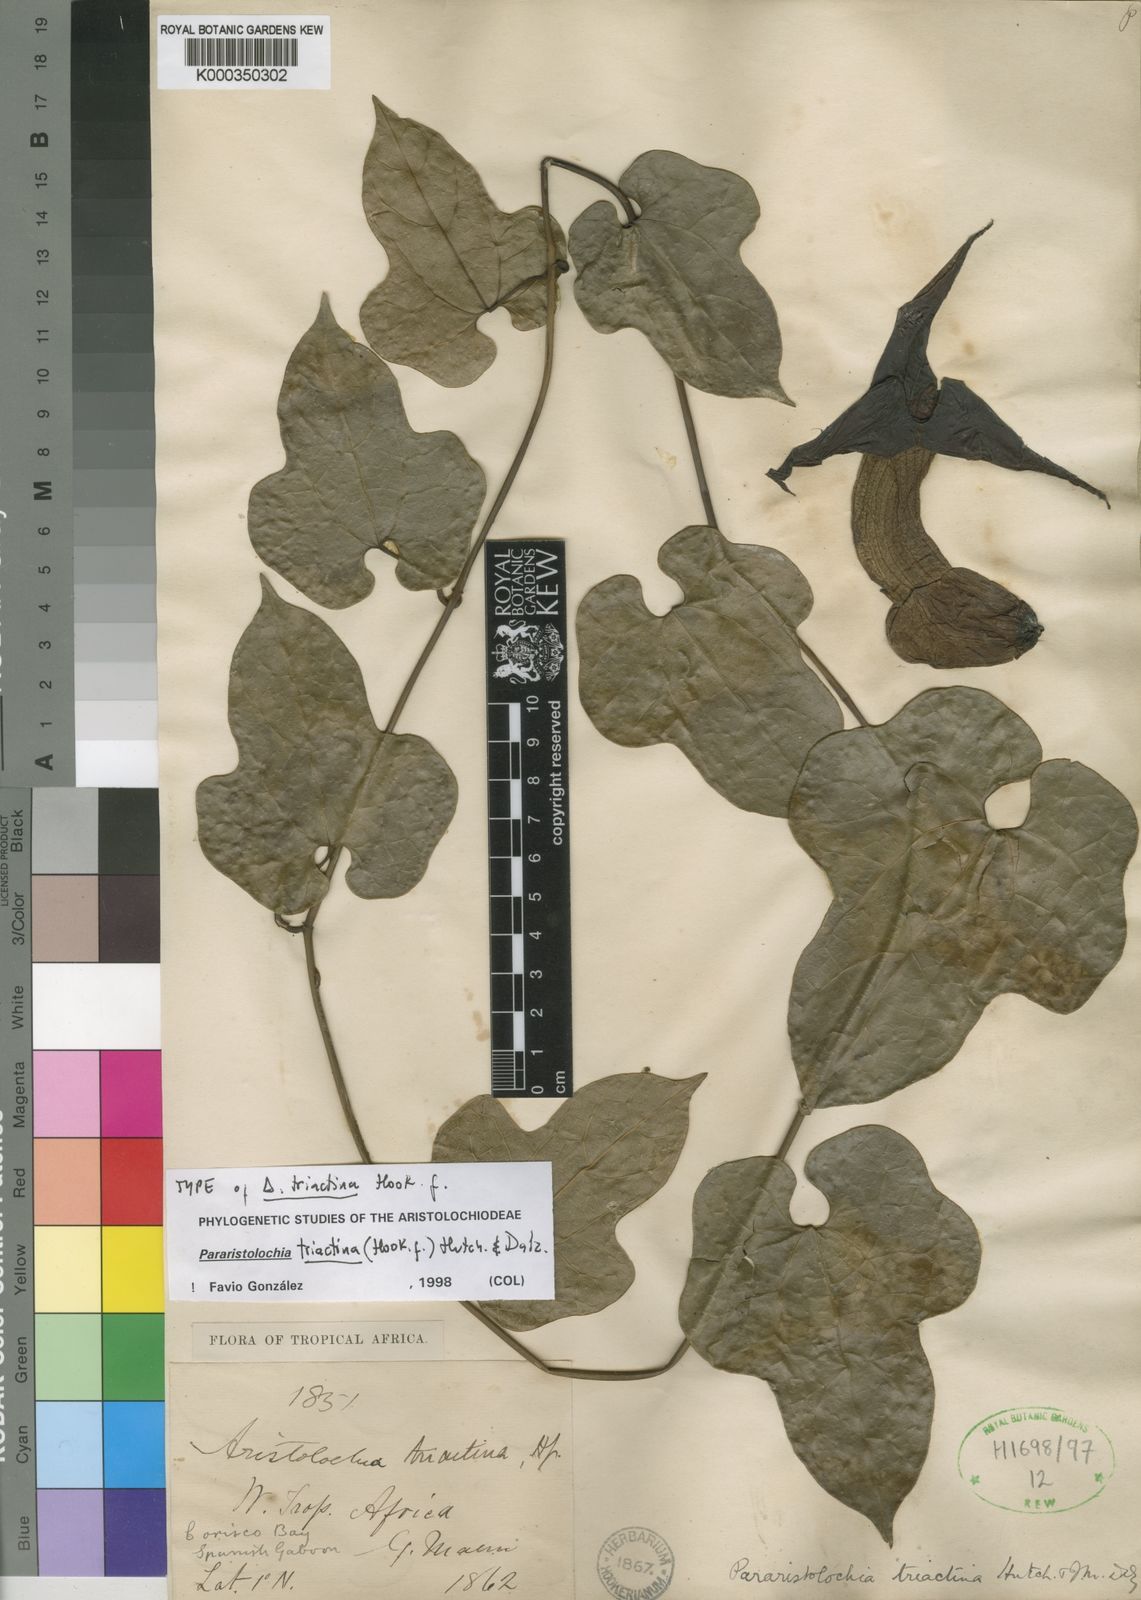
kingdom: Plantae
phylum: Tracheophyta
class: Magnoliopsida
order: Piperales
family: Aristolochiaceae
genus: Aristolochia
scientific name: Aristolochia triactina
